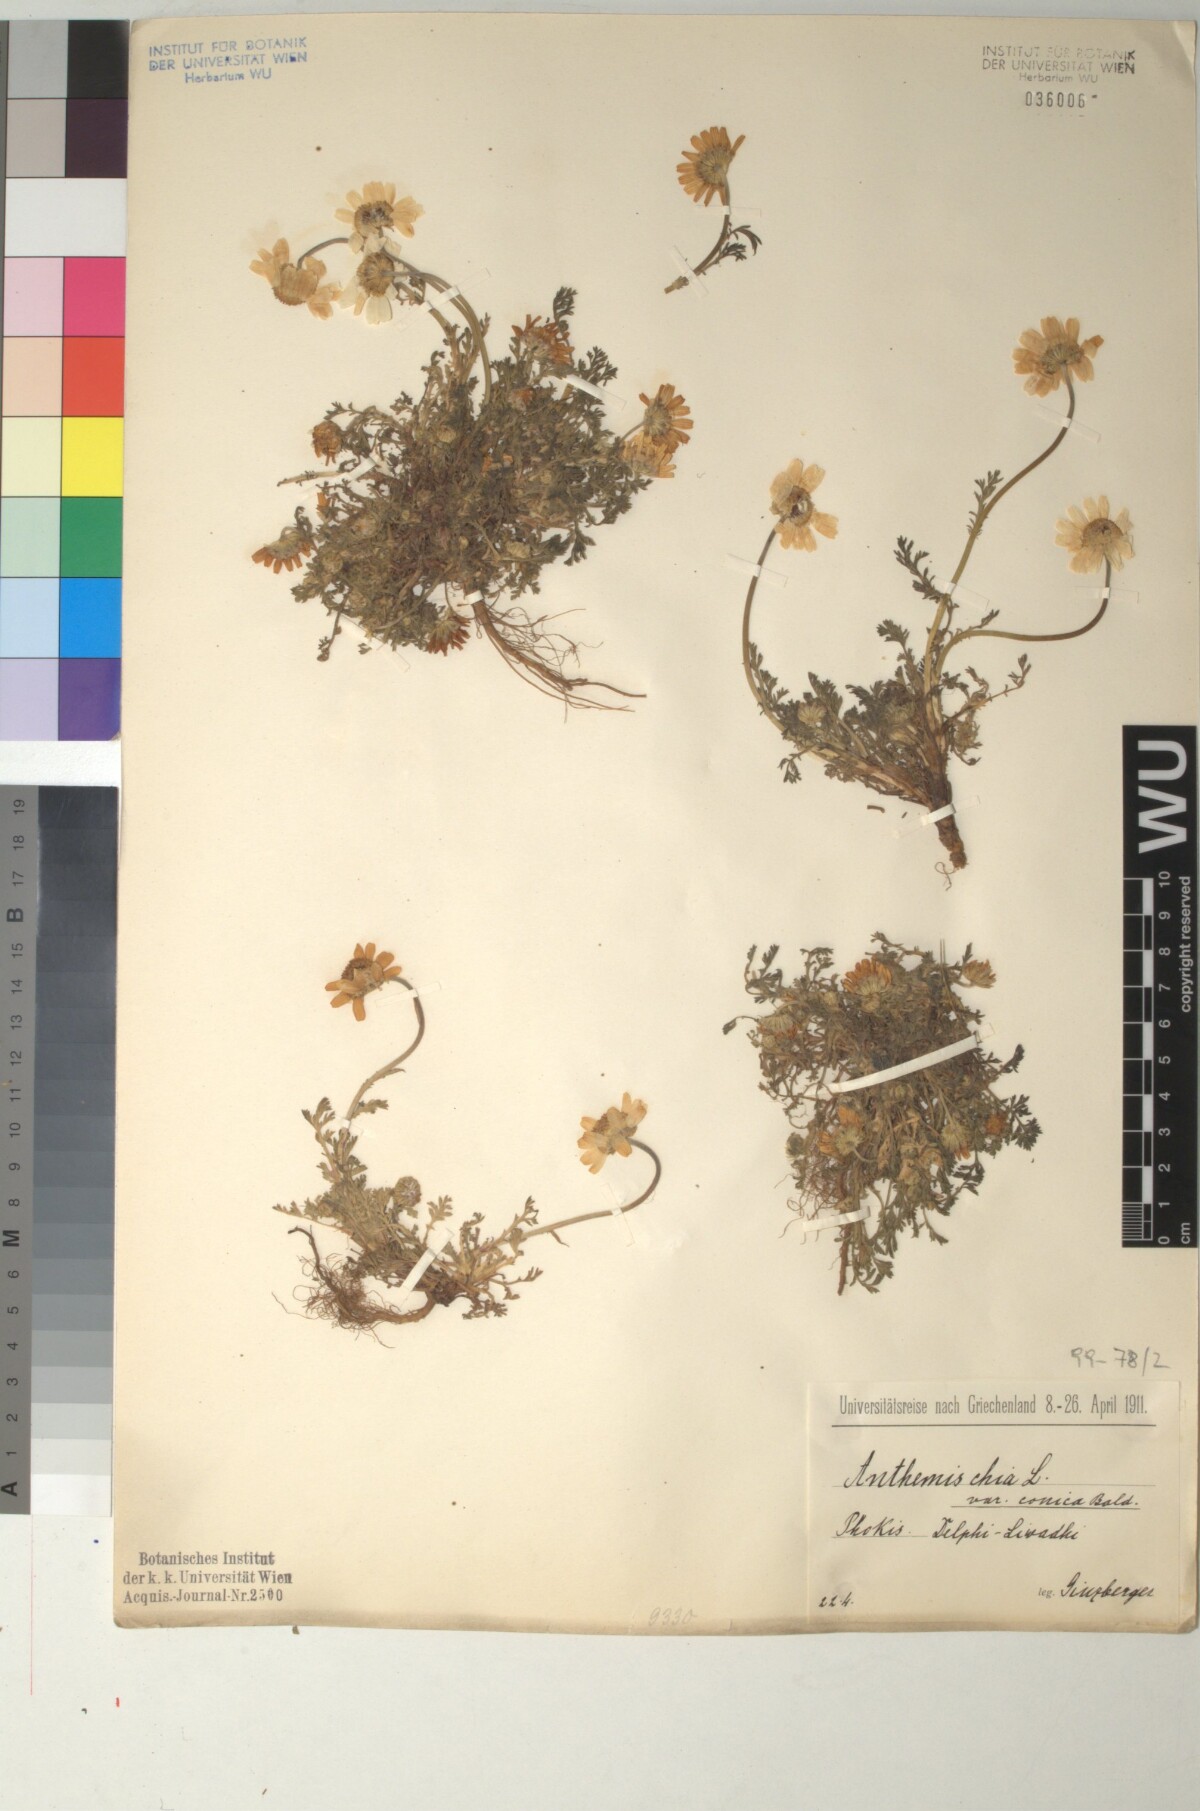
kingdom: Plantae
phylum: Tracheophyta
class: Magnoliopsida
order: Asterales
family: Asteraceae
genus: Anthemis
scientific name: Anthemis chia
